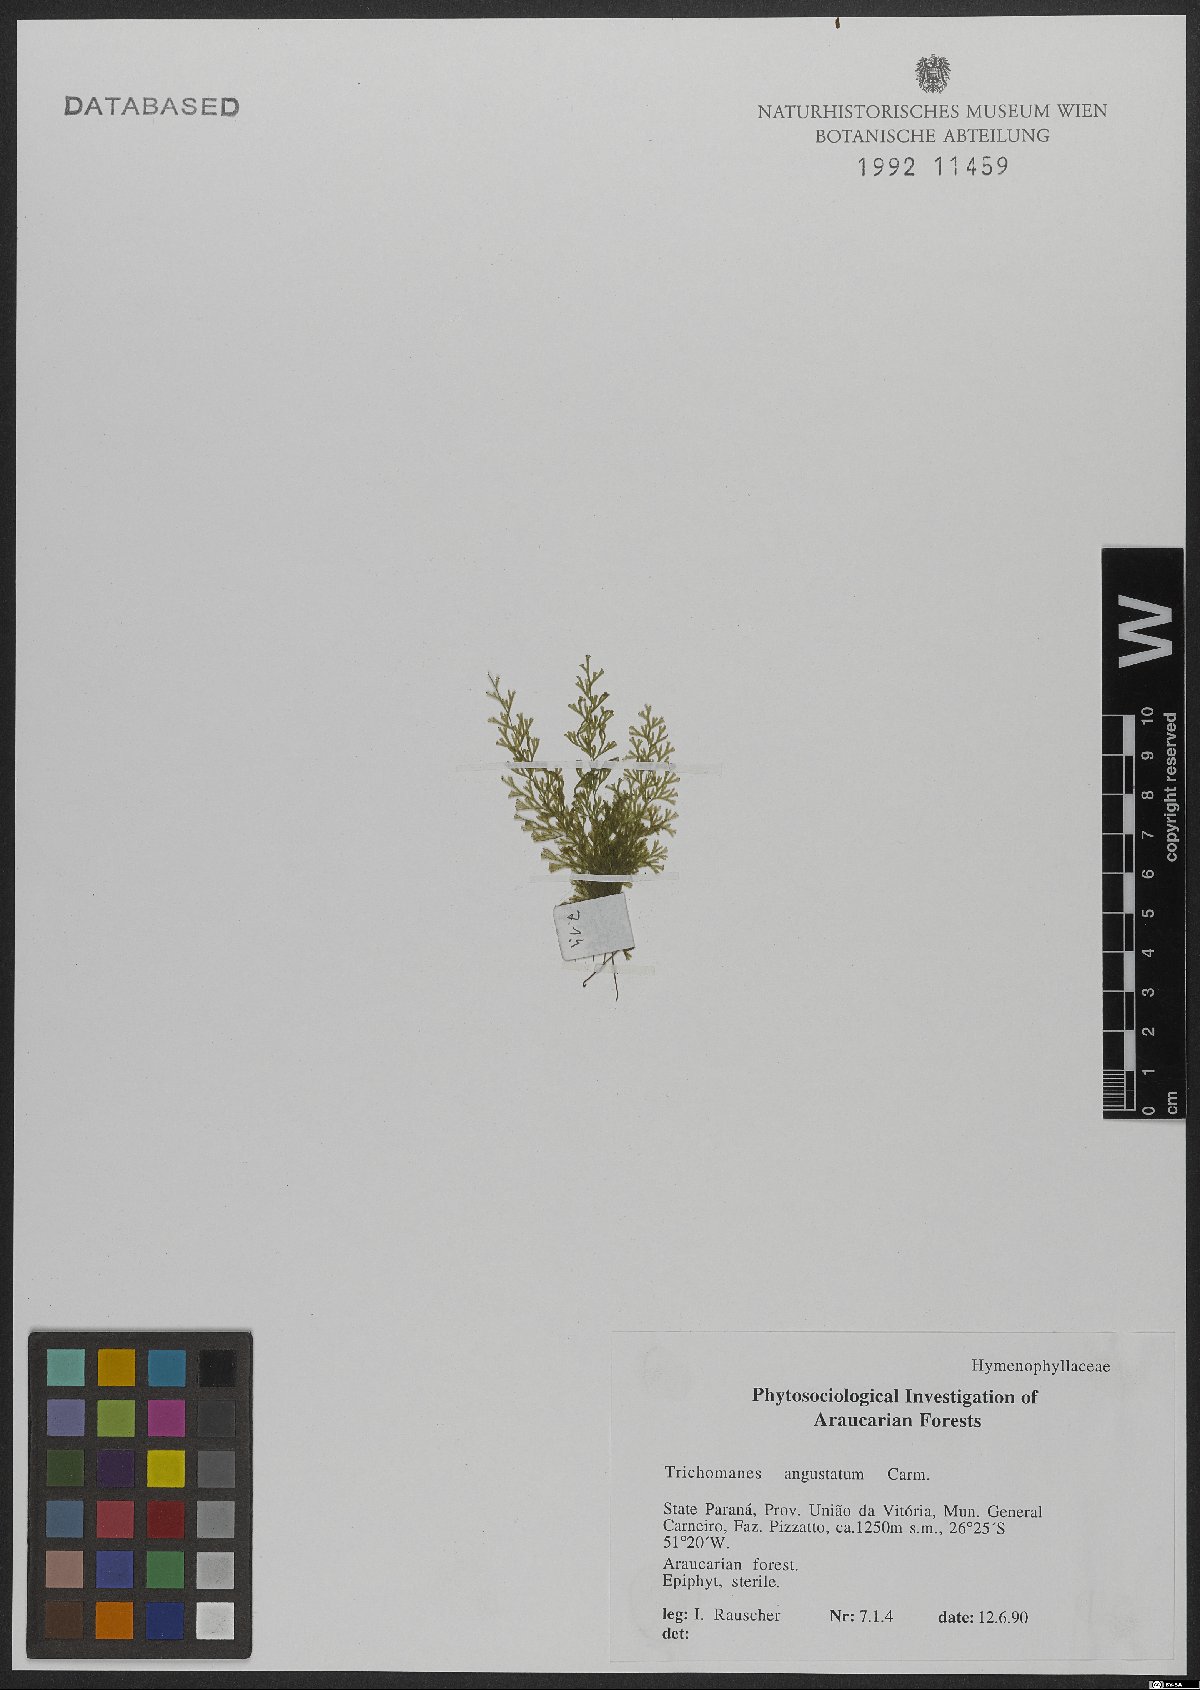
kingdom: Plantae
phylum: Tracheophyta
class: Polypodiopsida
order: Hymenophyllales
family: Hymenophyllaceae
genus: Polyphlebium
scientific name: Polyphlebium angustatum
